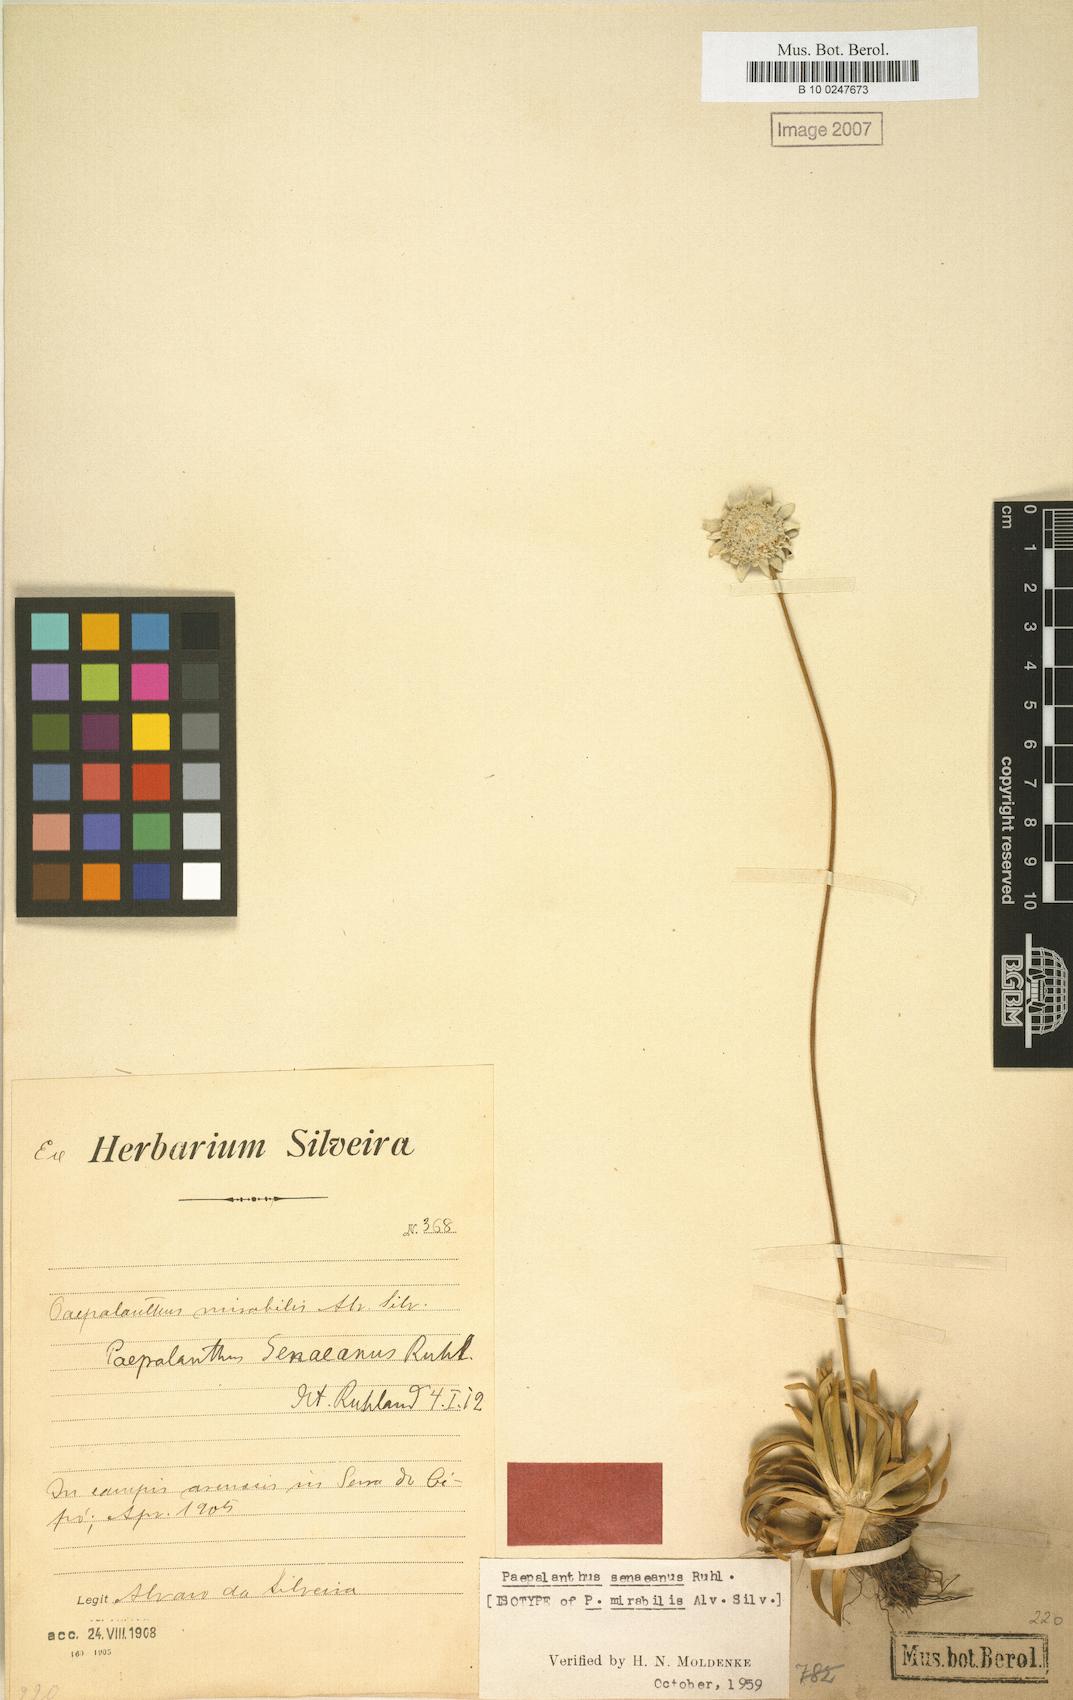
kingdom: Plantae
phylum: Tracheophyta
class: Liliopsida
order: Poales
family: Eriocaulaceae
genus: Paepalanthus
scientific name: Paepalanthus senaeanus
